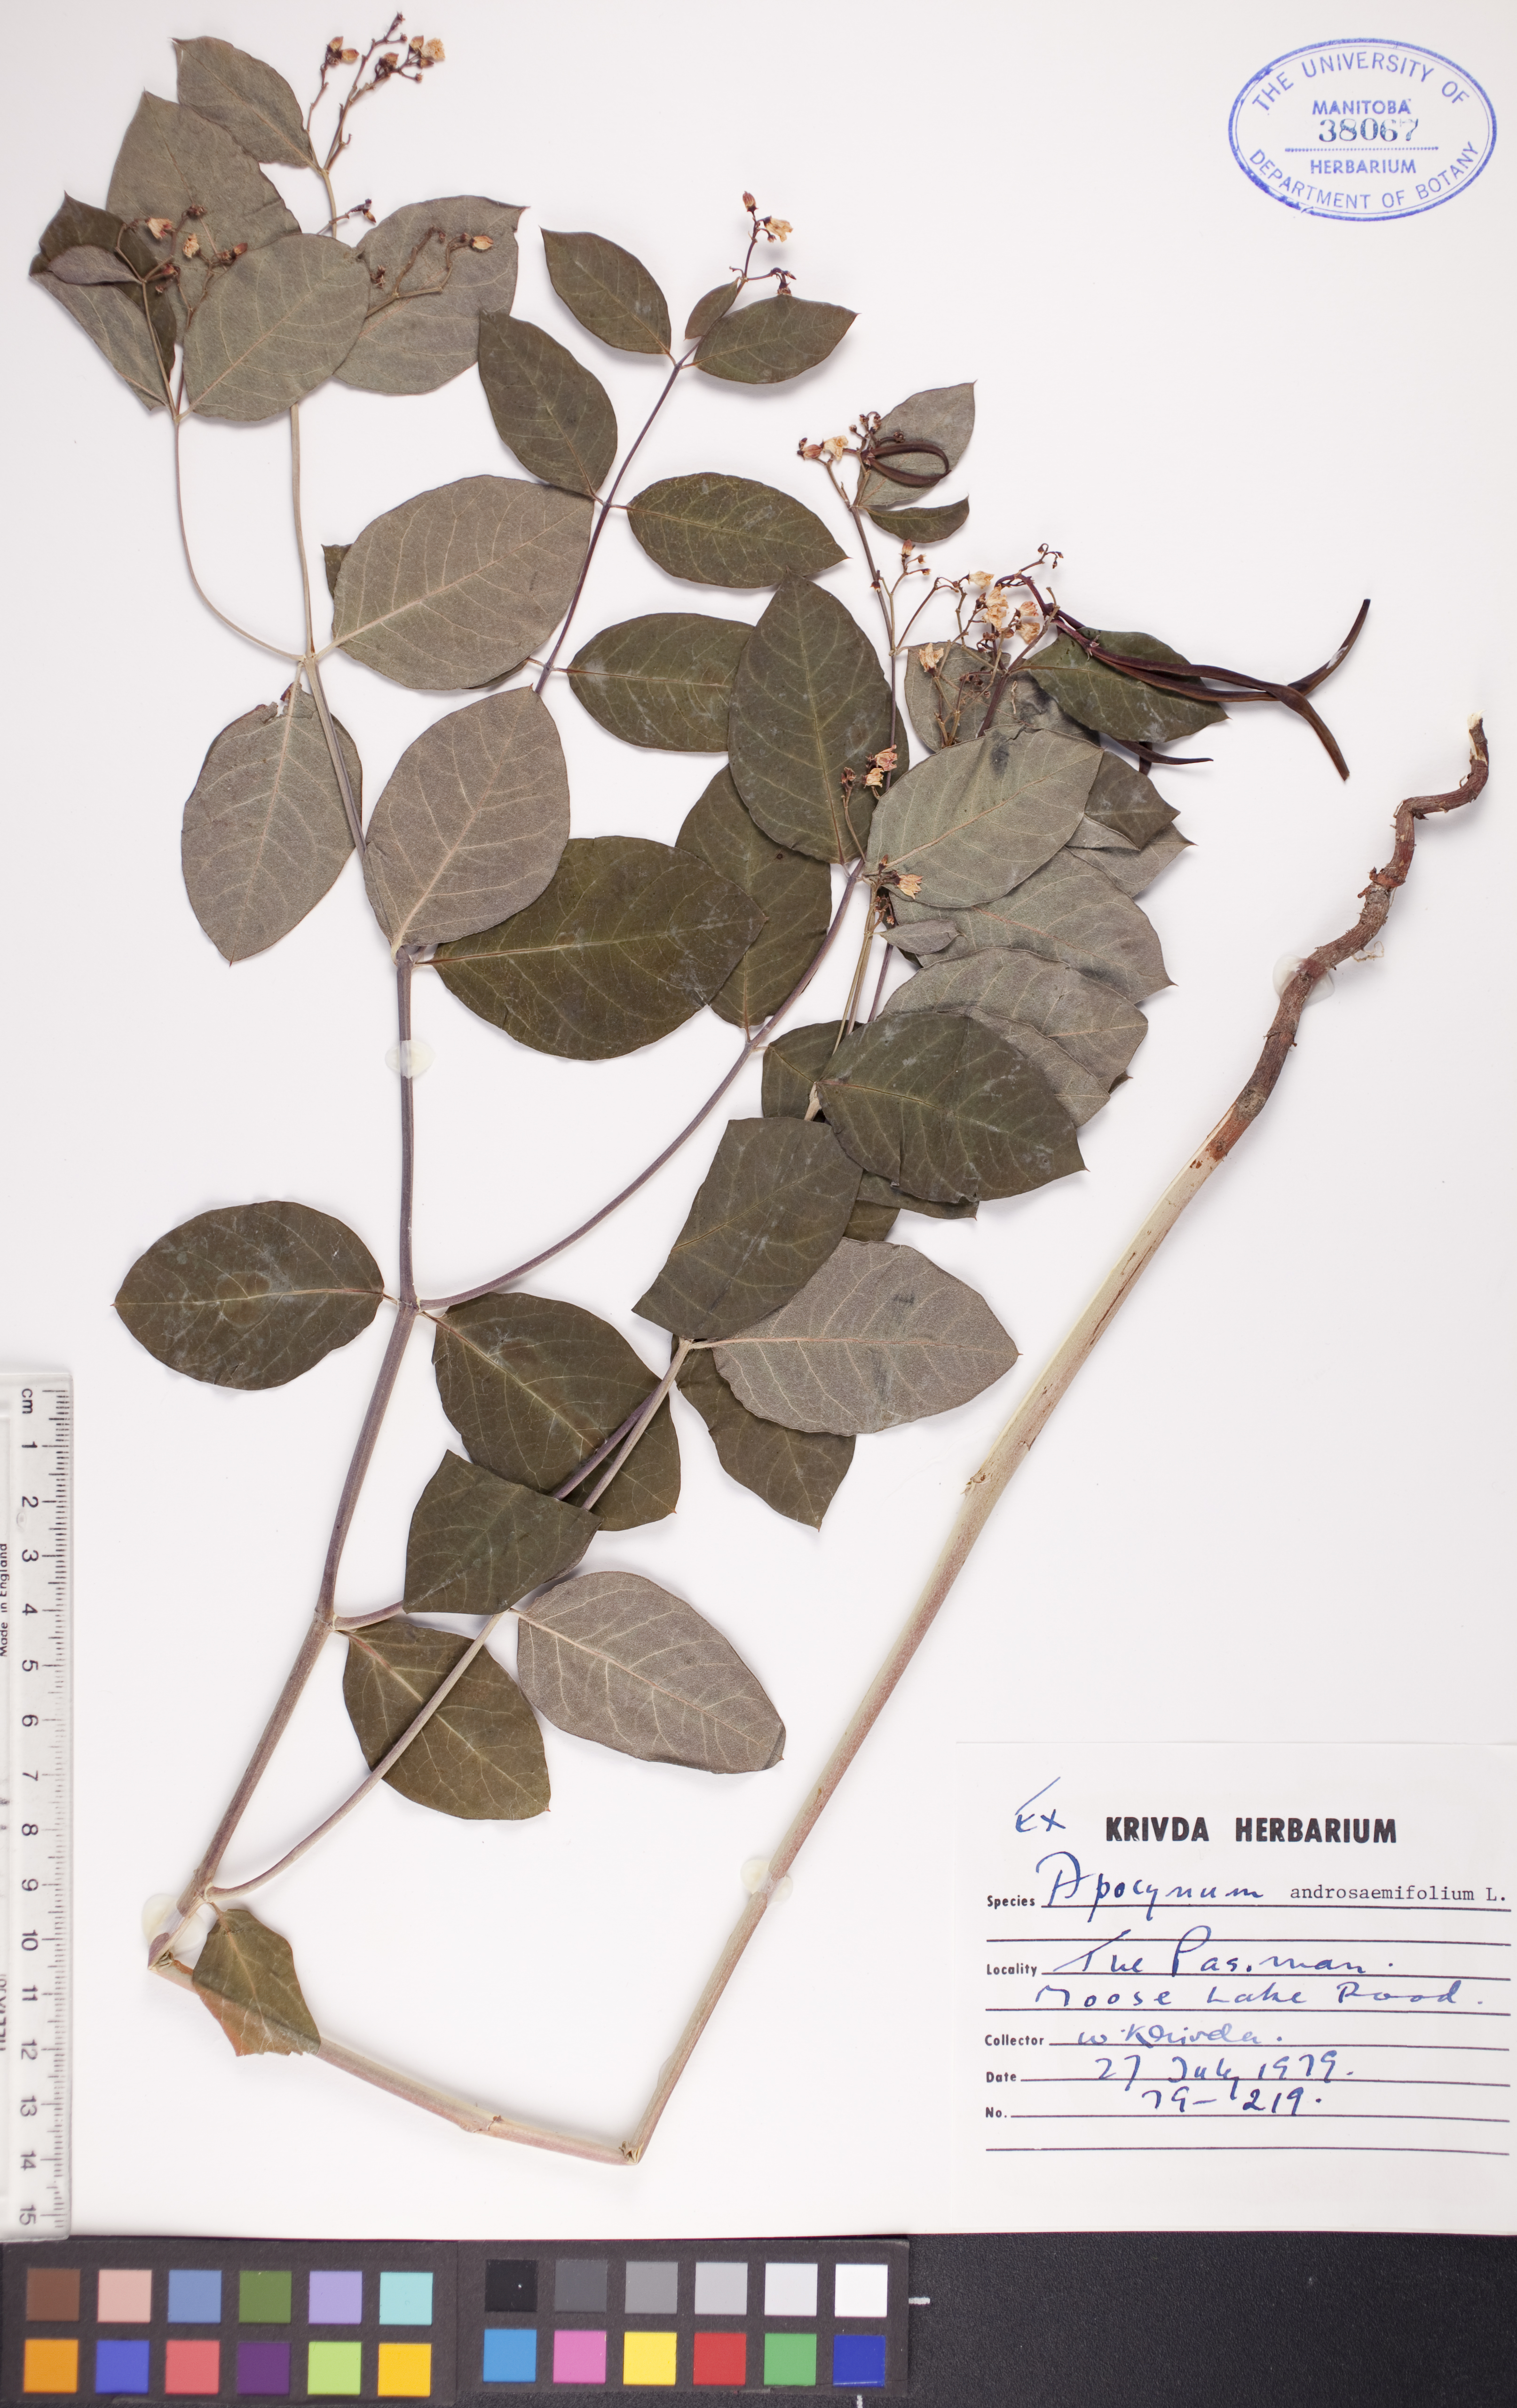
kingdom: Plantae
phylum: Tracheophyta
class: Magnoliopsida
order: Gentianales
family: Apocynaceae
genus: Apocynum
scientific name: Apocynum androsaemifolium
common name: Spreading dogbane
